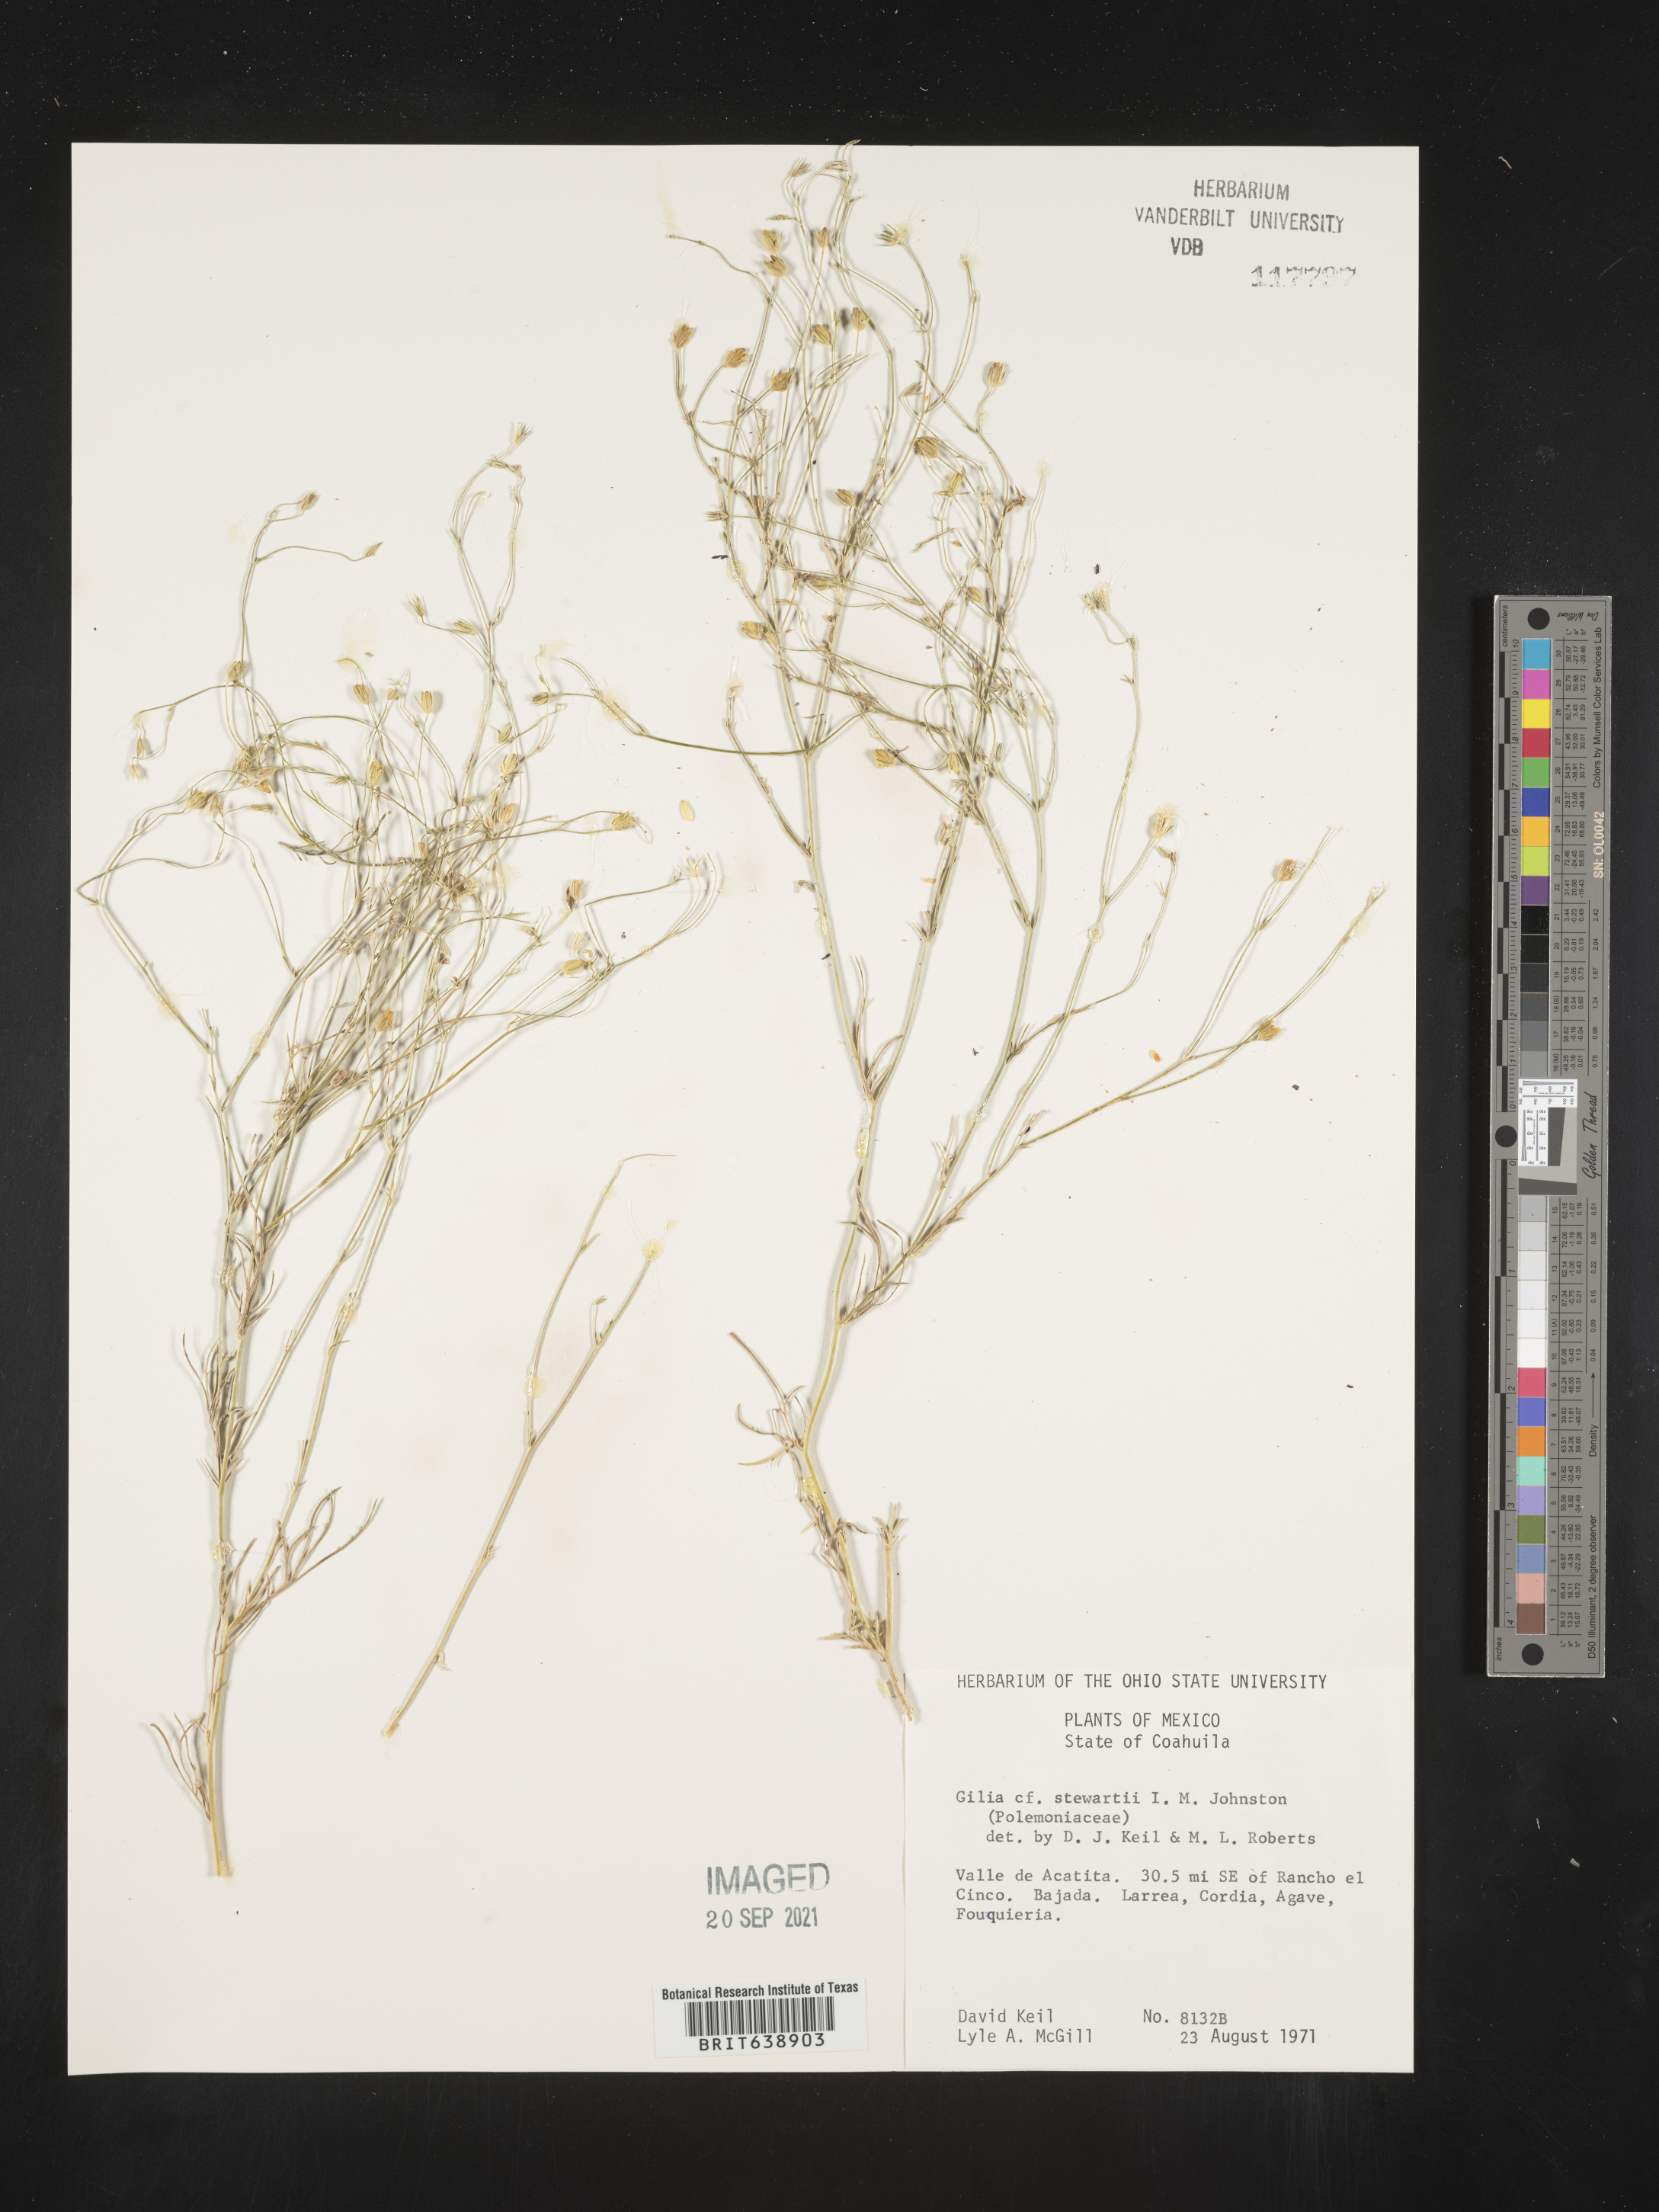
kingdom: Plantae
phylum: Tracheophyta
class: Magnoliopsida
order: Ericales
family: Polemoniaceae
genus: Gilia
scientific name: Gilia
